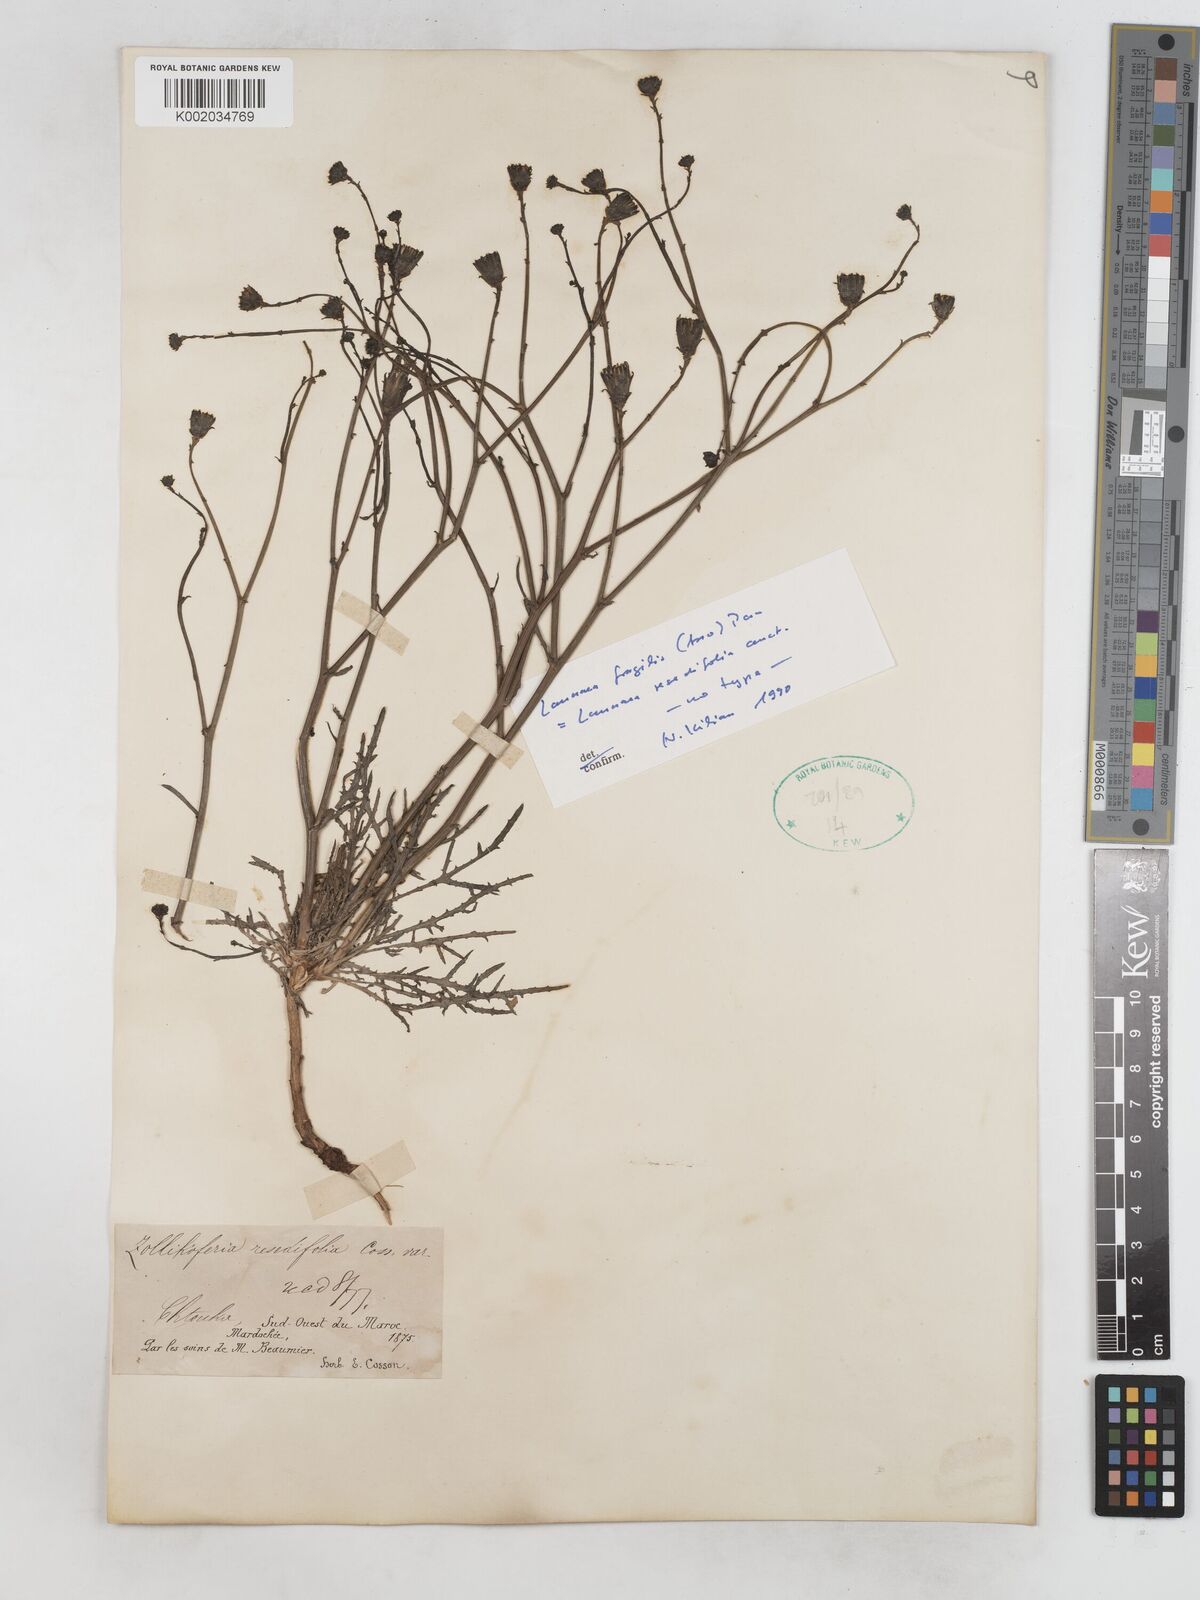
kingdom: Plantae
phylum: Tracheophyta
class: Magnoliopsida
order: Asterales
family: Asteraceae
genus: Launaea
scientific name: Launaea fragilis
